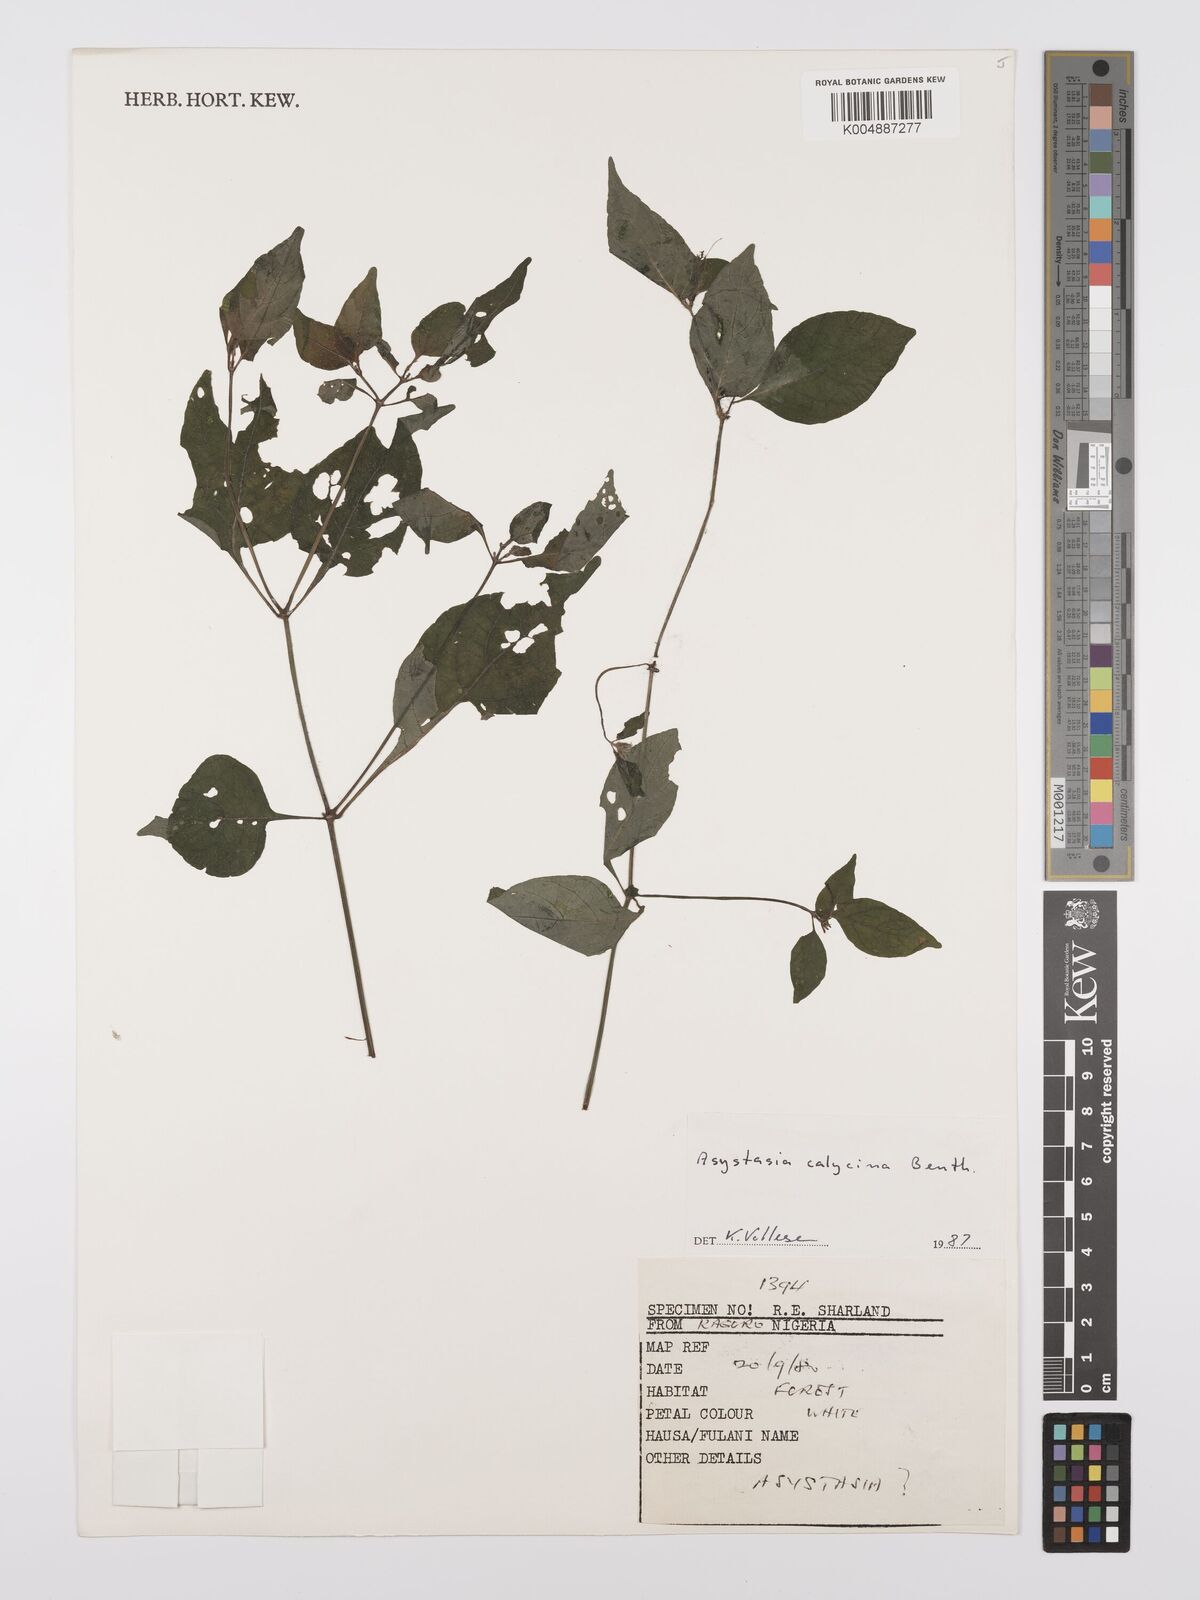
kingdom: Plantae
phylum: Tracheophyta
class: Magnoliopsida
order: Lamiales
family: Acanthaceae
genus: Asystasia
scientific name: Asystasia buettneri
